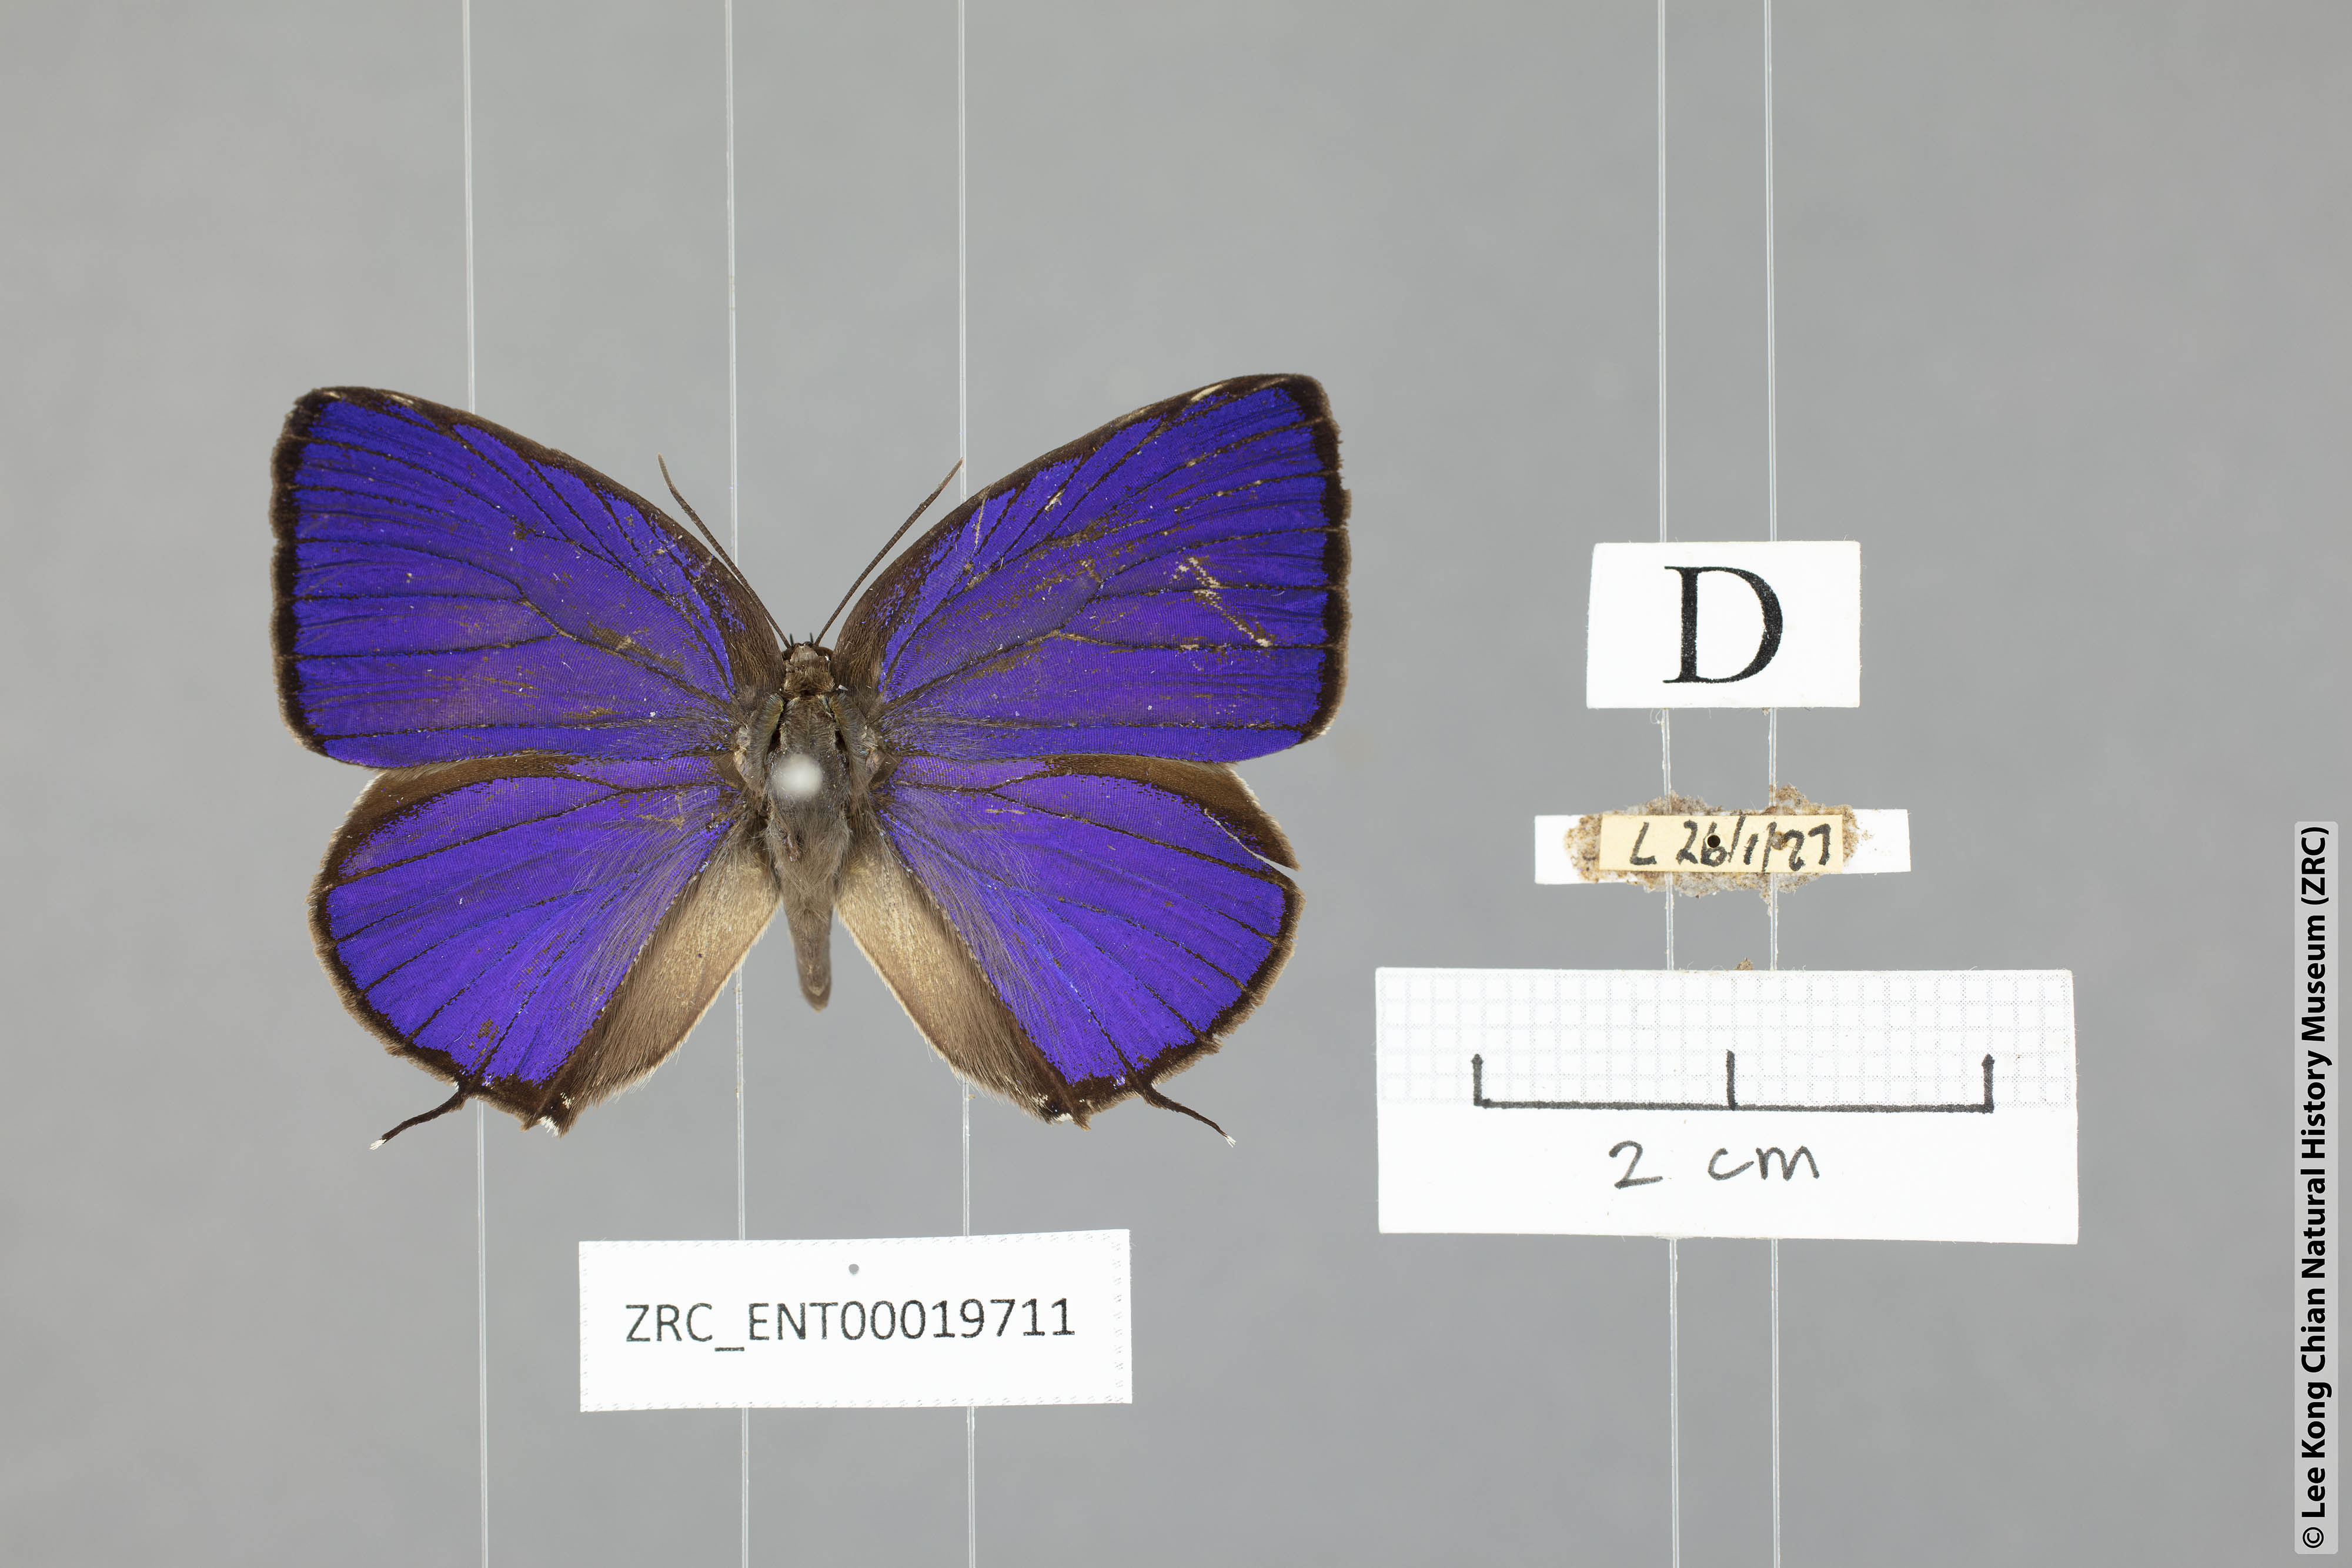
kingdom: Animalia
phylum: Arthropoda
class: Insecta
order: Lepidoptera
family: Lycaenidae
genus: Arhopala
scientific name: Arhopala myrzala
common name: Malayan oakblue
